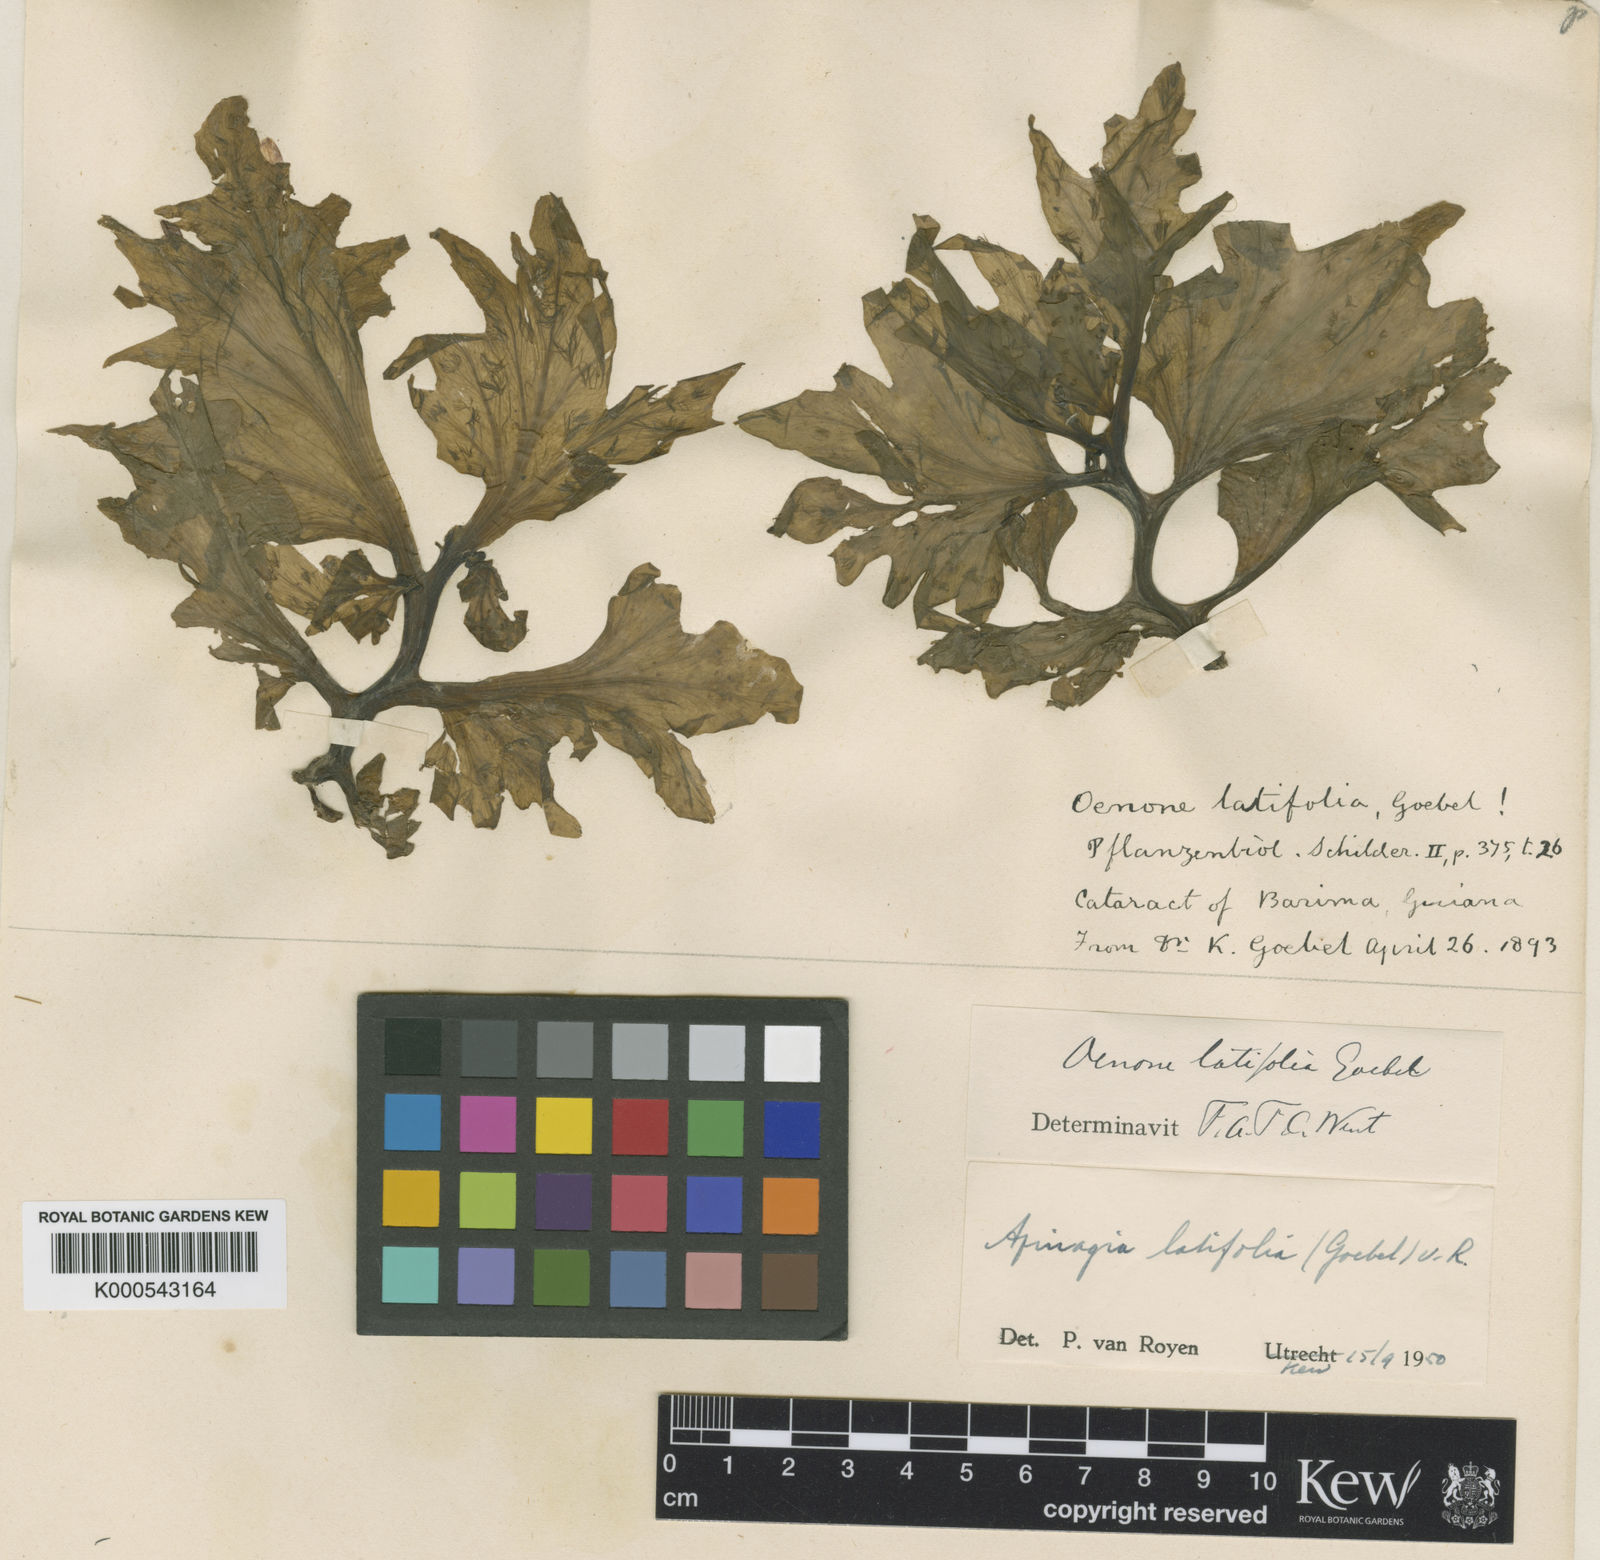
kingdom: Plantae
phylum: Tracheophyta
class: Magnoliopsida
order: Malpighiales
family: Podostemaceae
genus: Apinagia
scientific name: Apinagia kochii
